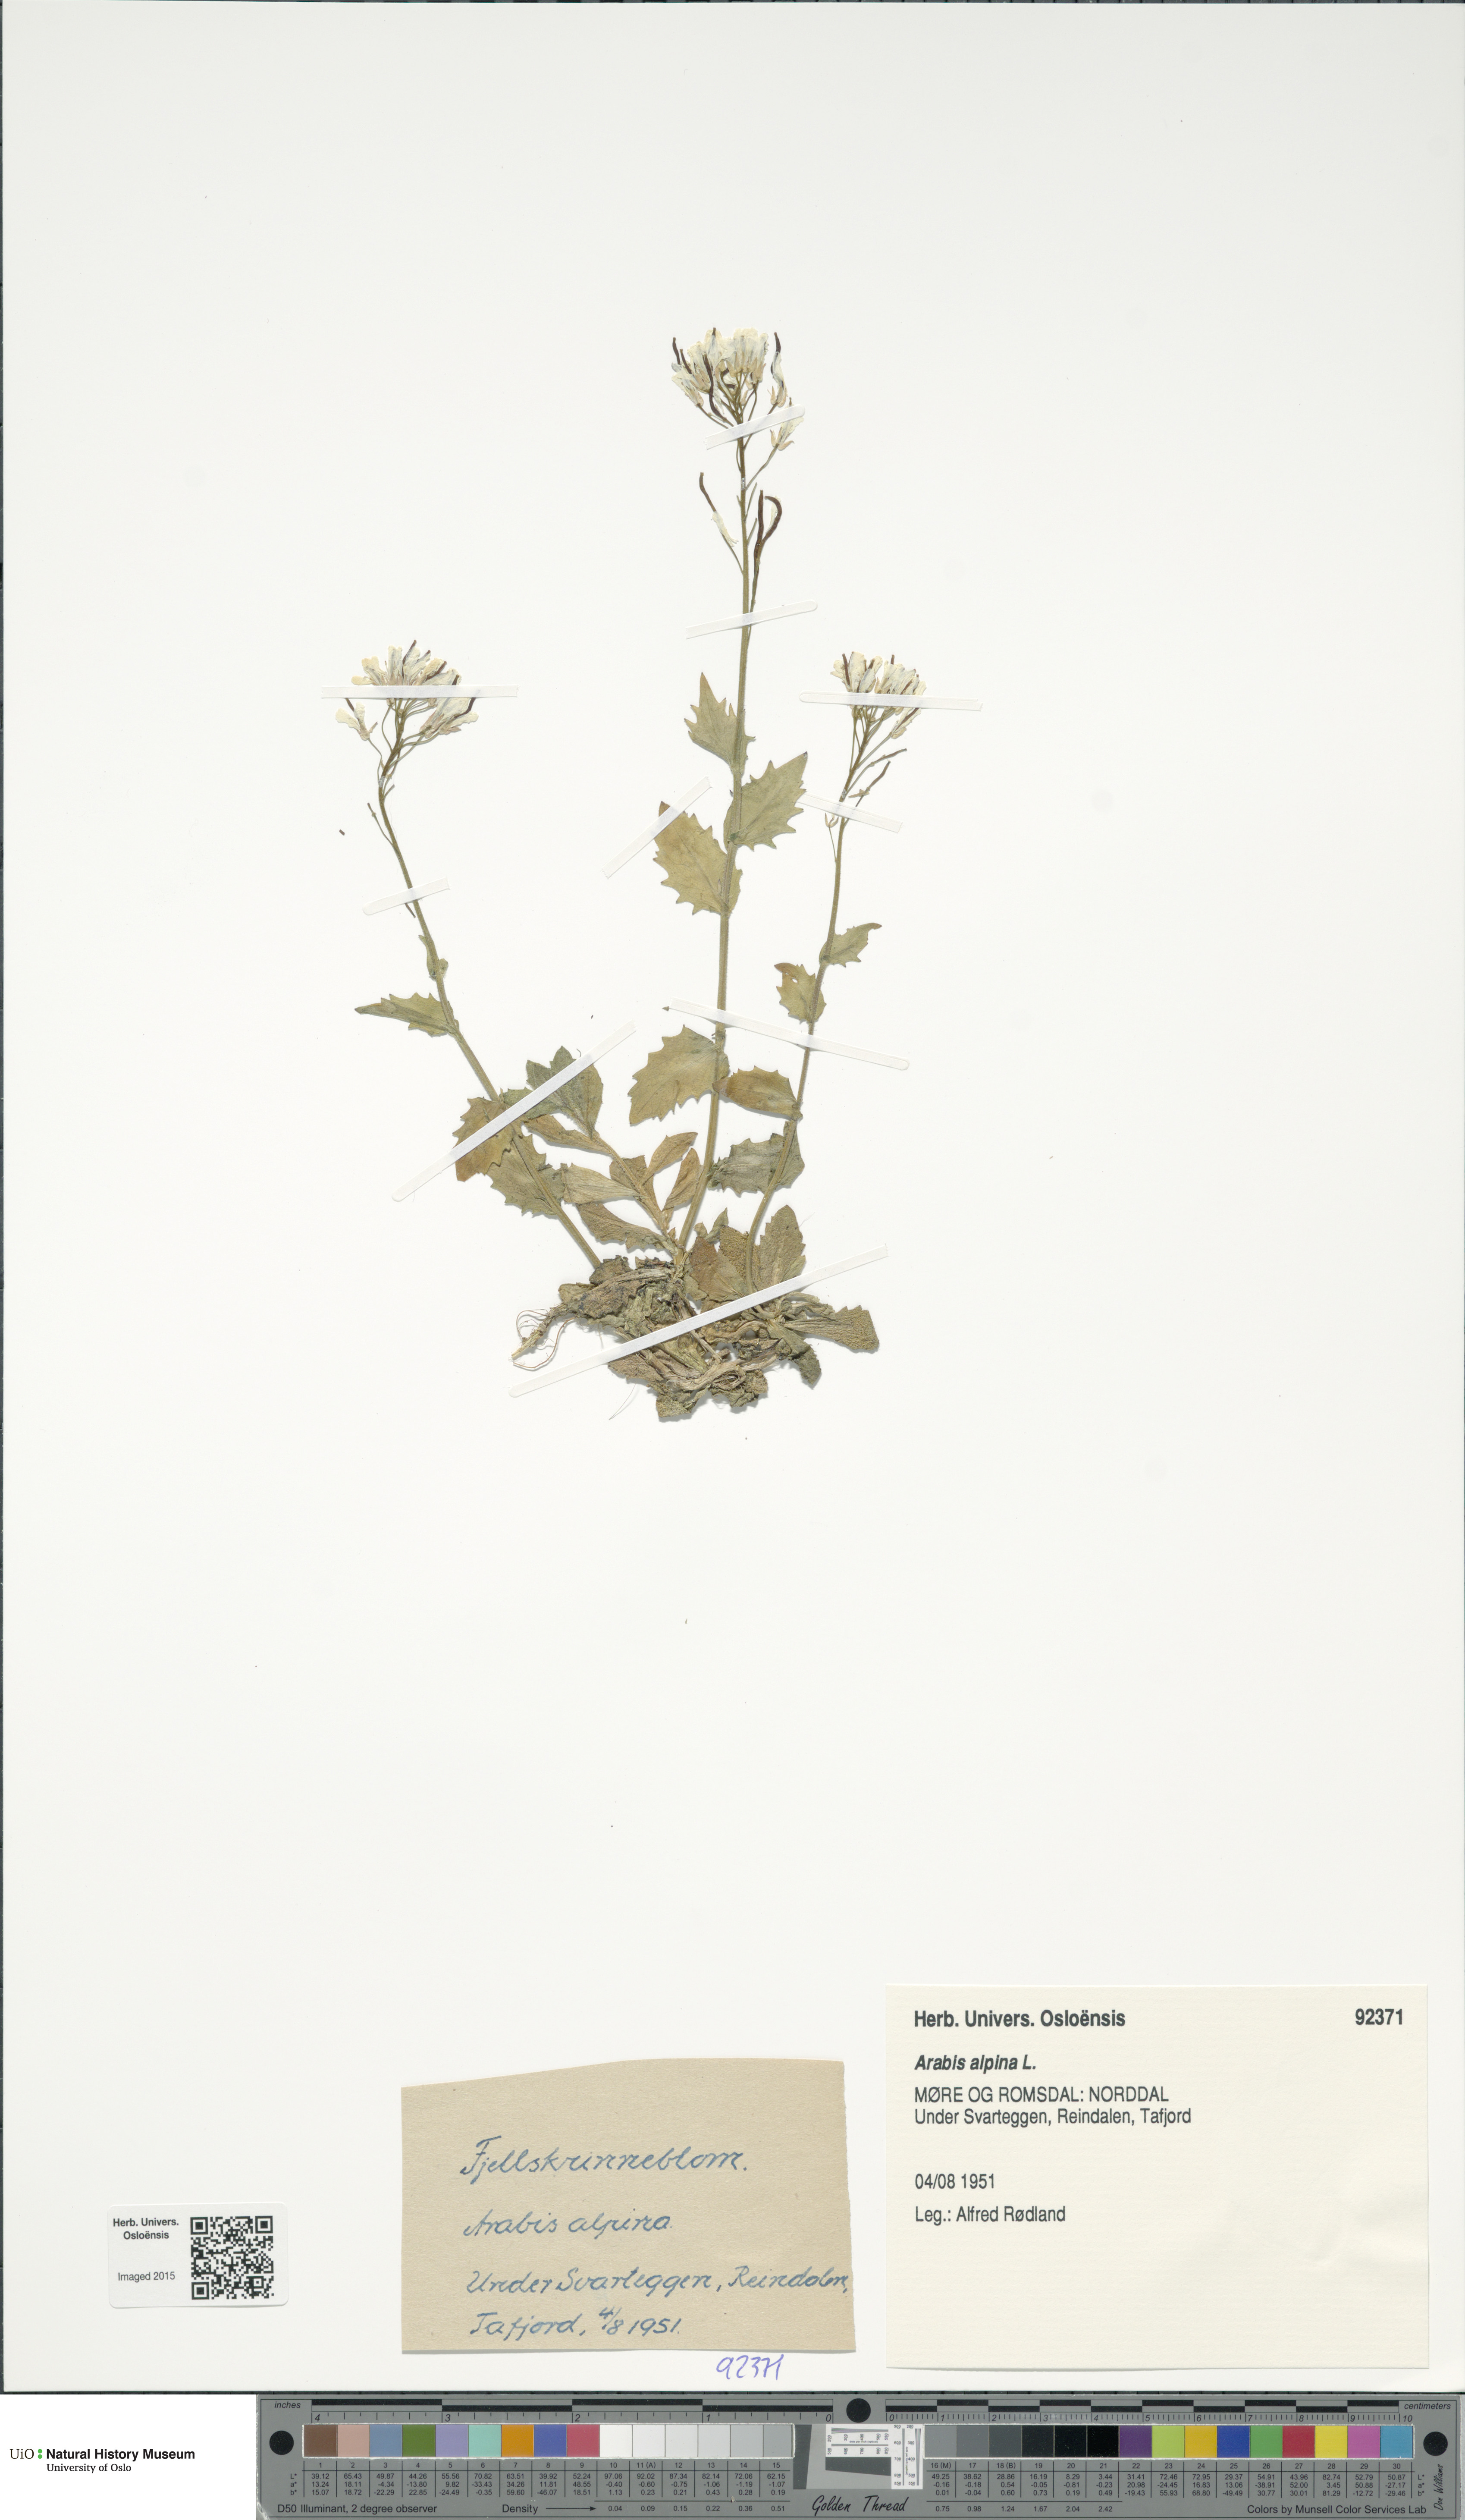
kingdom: Plantae
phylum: Tracheophyta
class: Magnoliopsida
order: Brassicales
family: Brassicaceae
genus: Arabis
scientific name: Arabis alpina
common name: Alpine rock-cress
